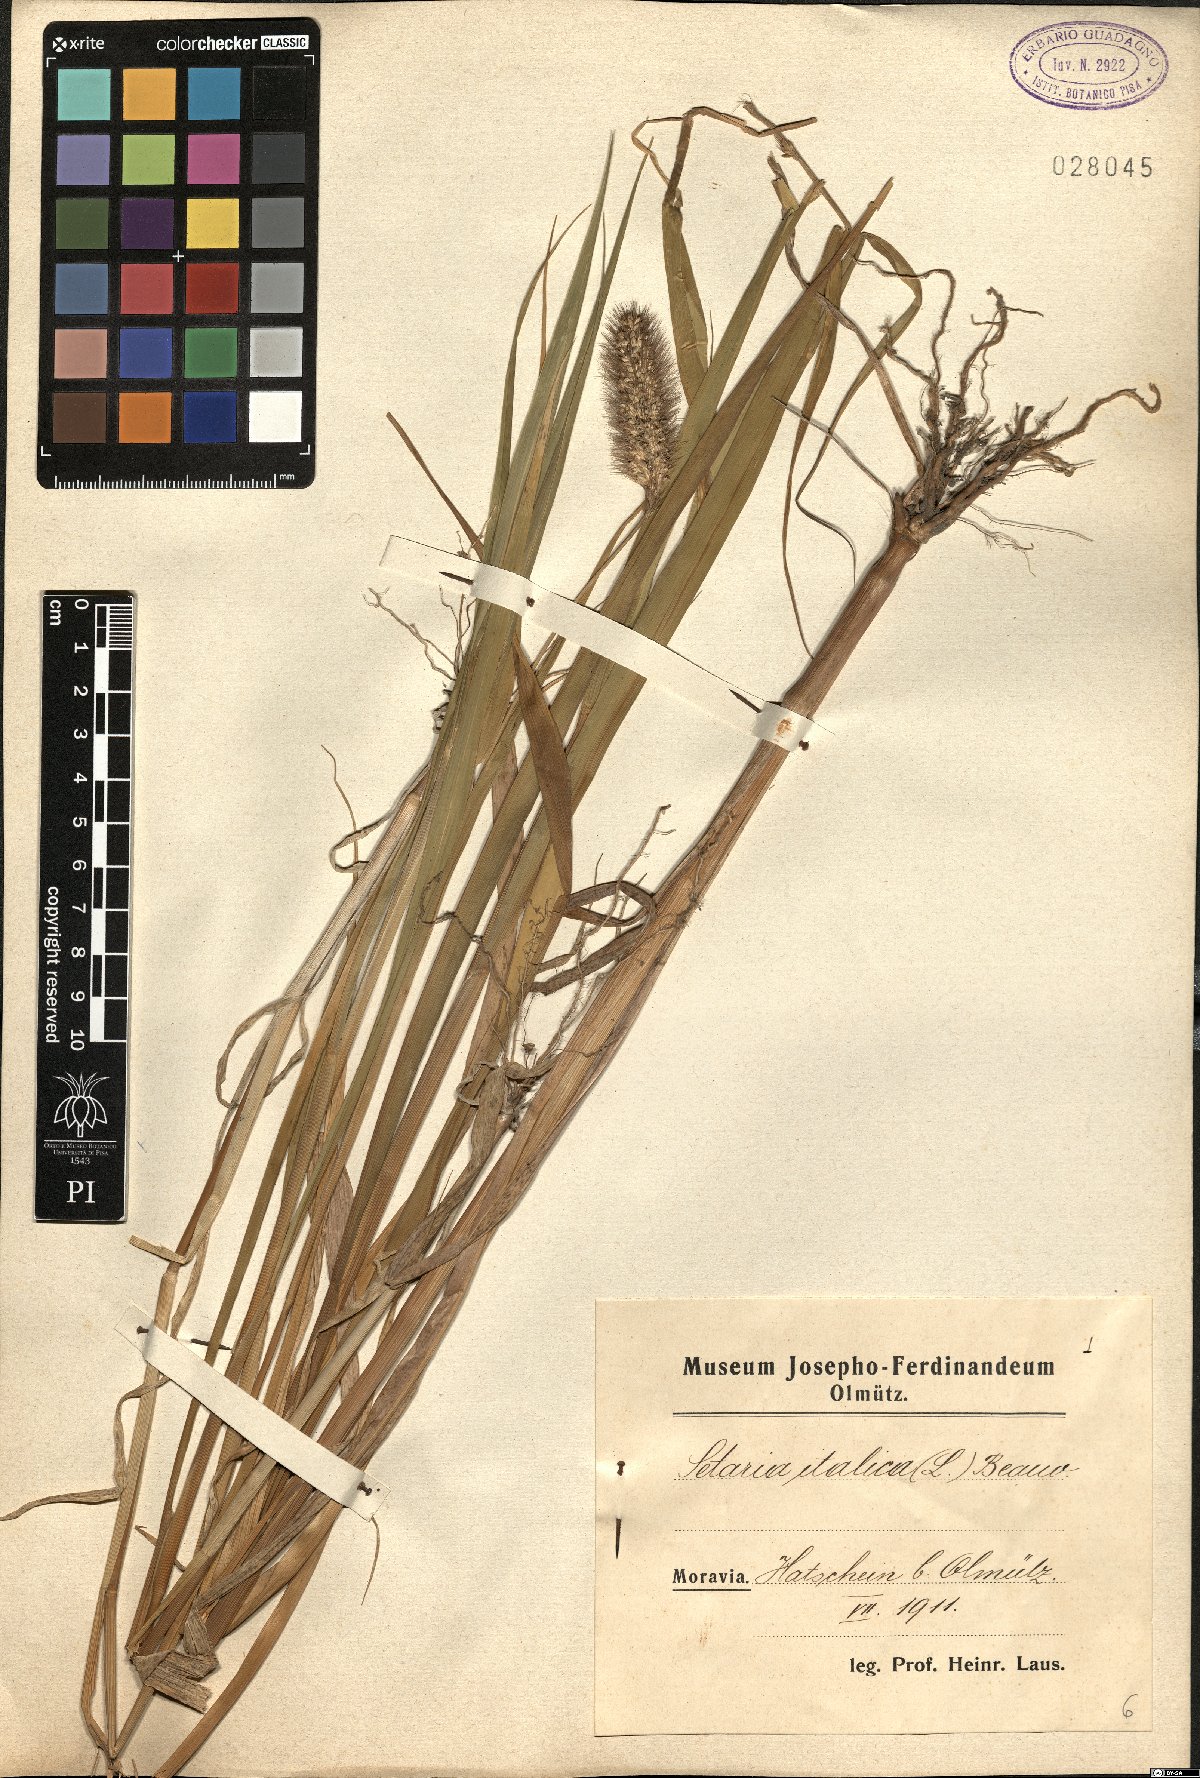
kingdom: Plantae
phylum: Tracheophyta
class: Liliopsida
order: Poales
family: Poaceae
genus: Setaria
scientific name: Setaria italica
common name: Foxtail bristle-grass
